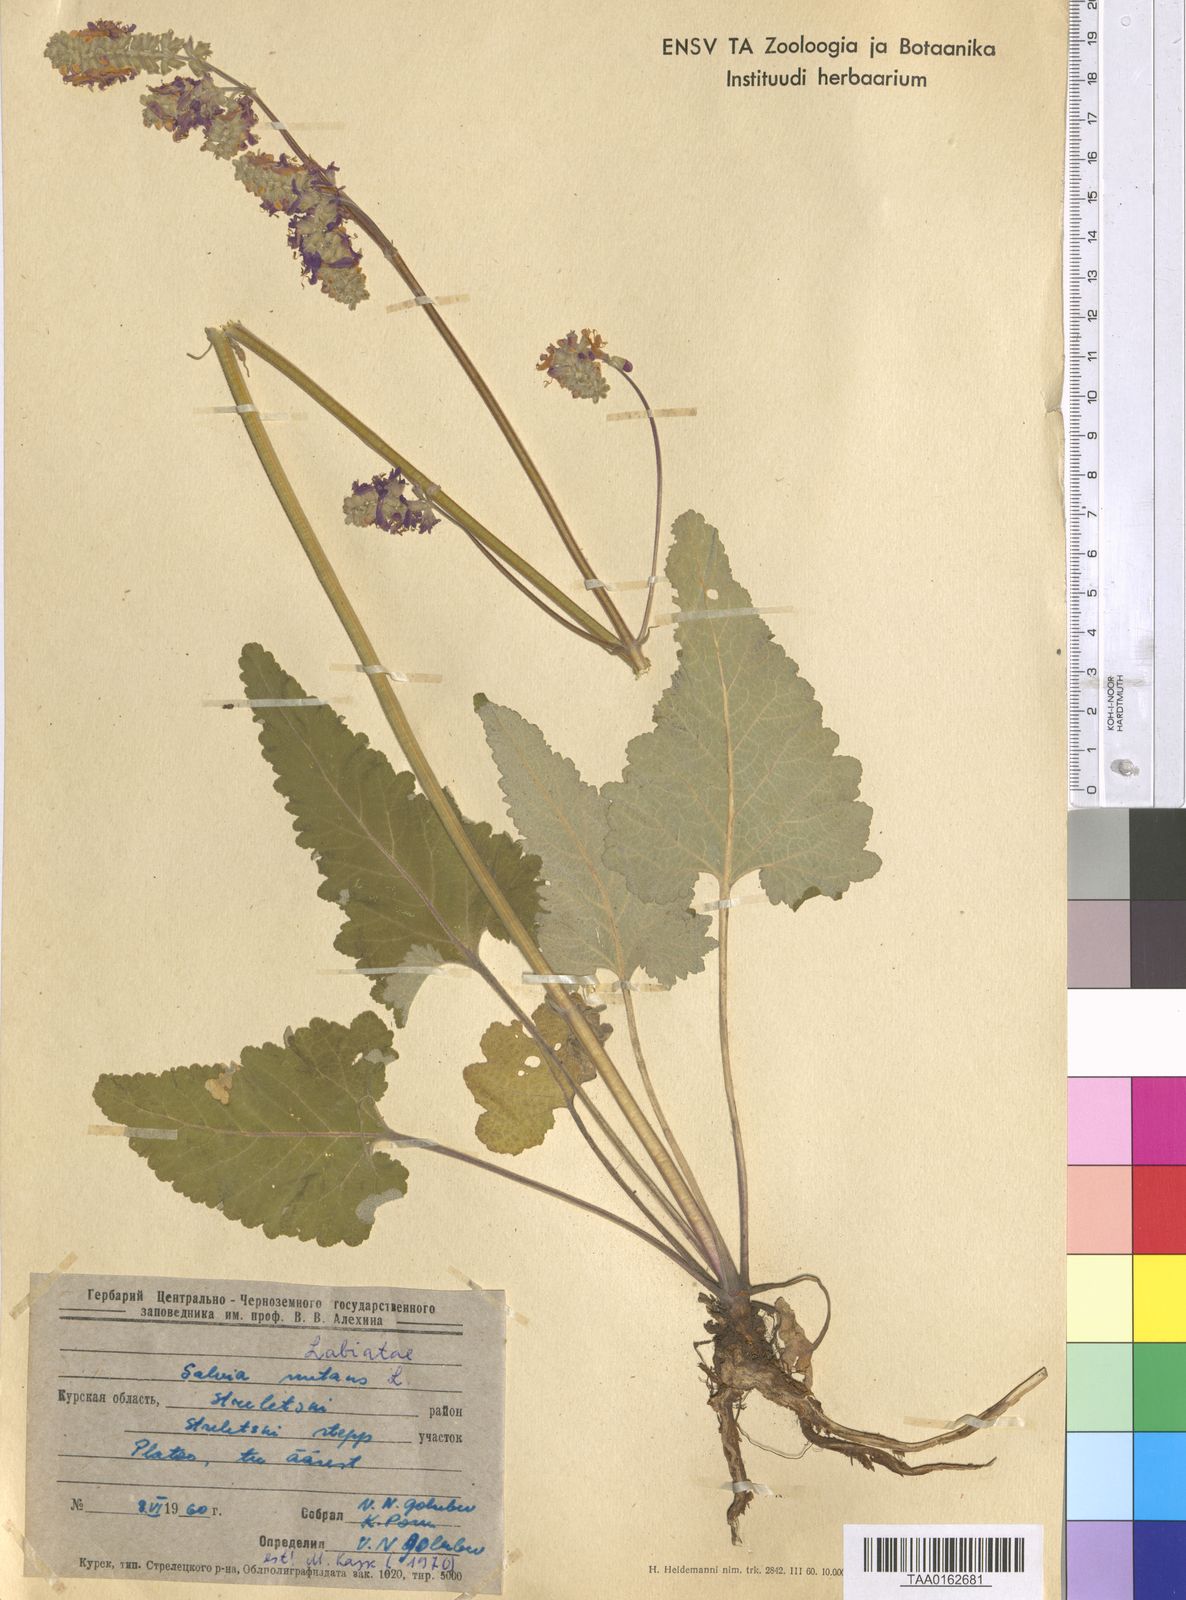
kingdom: Plantae
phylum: Tracheophyta
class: Magnoliopsida
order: Lamiales
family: Lamiaceae
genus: Salvia
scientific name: Salvia nutans
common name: Nodding sage
